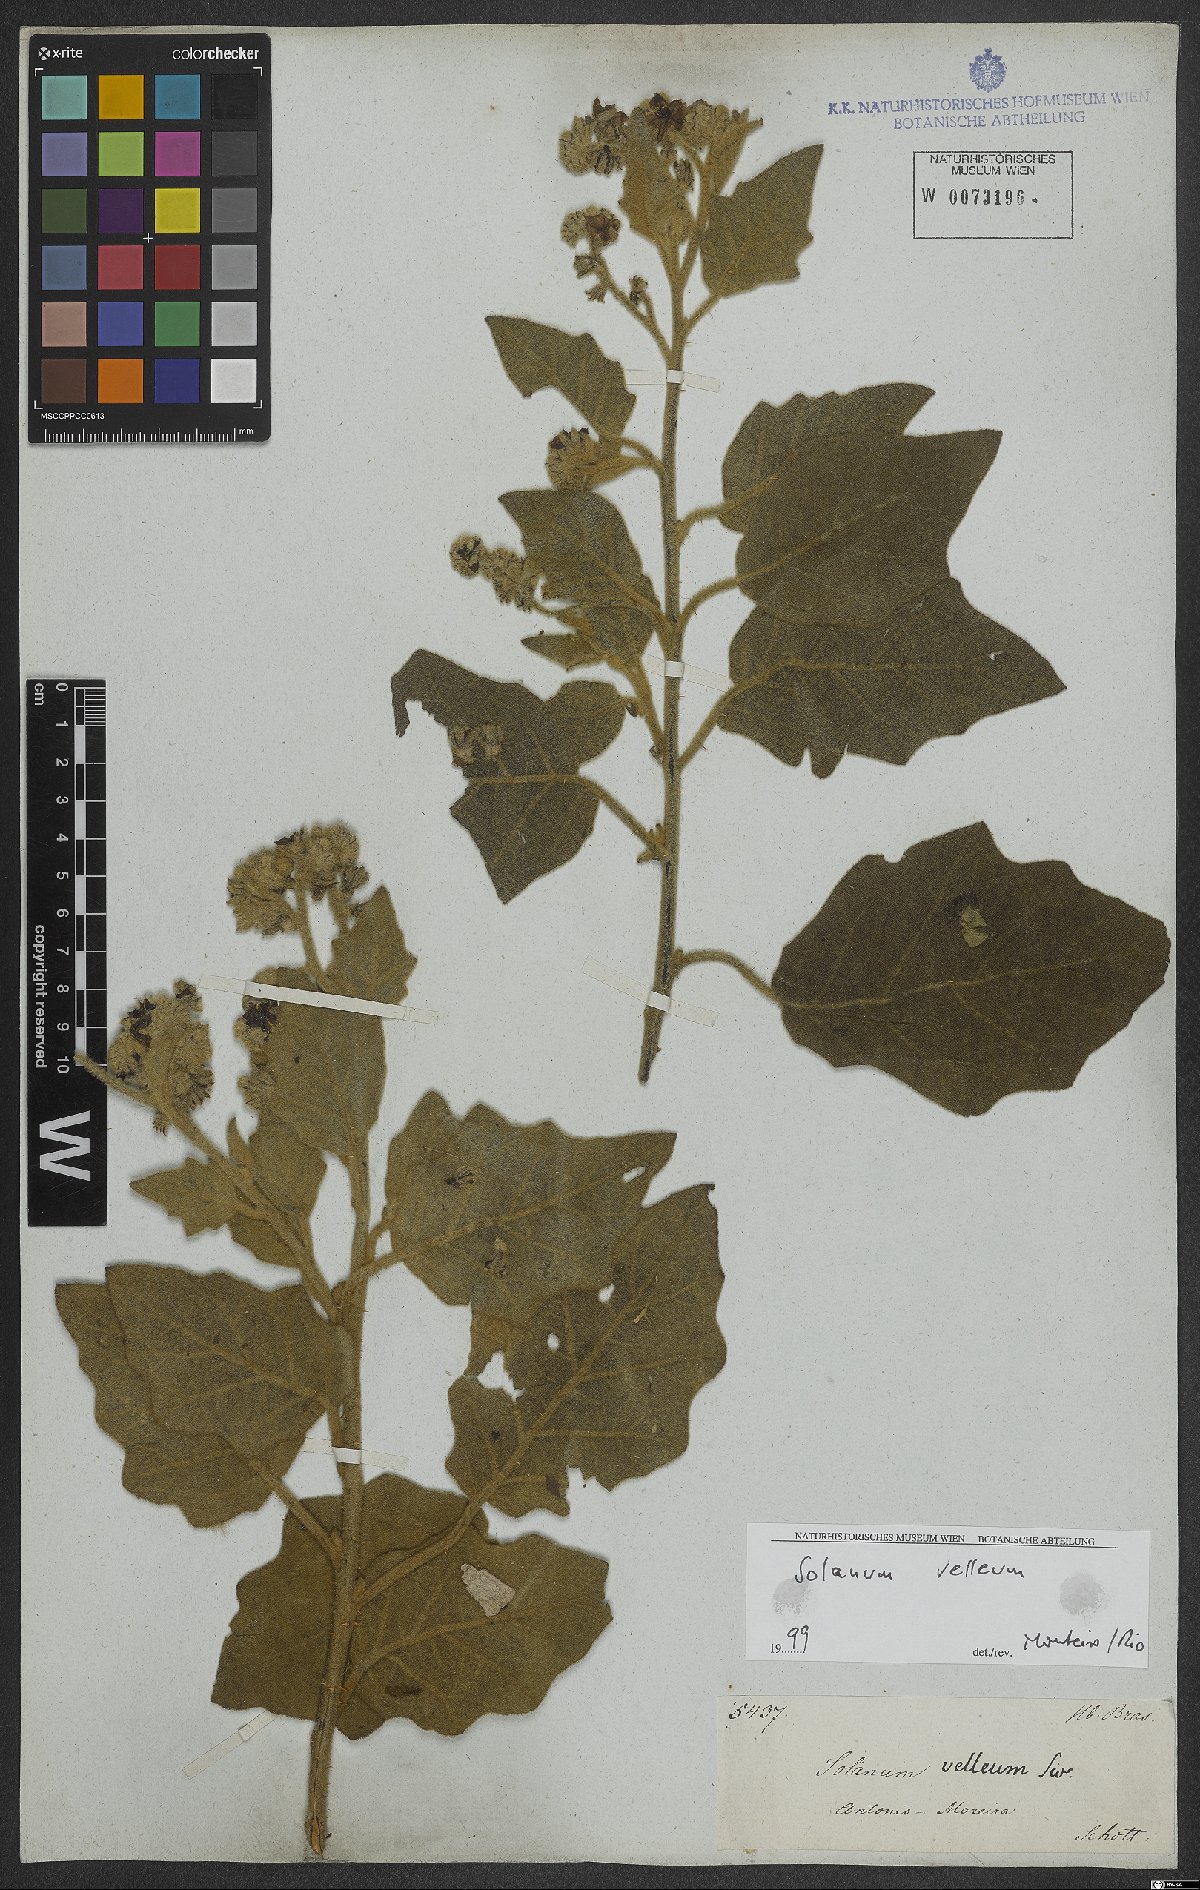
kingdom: Plantae
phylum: Tracheophyta
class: Magnoliopsida
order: Solanales
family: Solanaceae
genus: Solanum
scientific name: Solanum velleum
